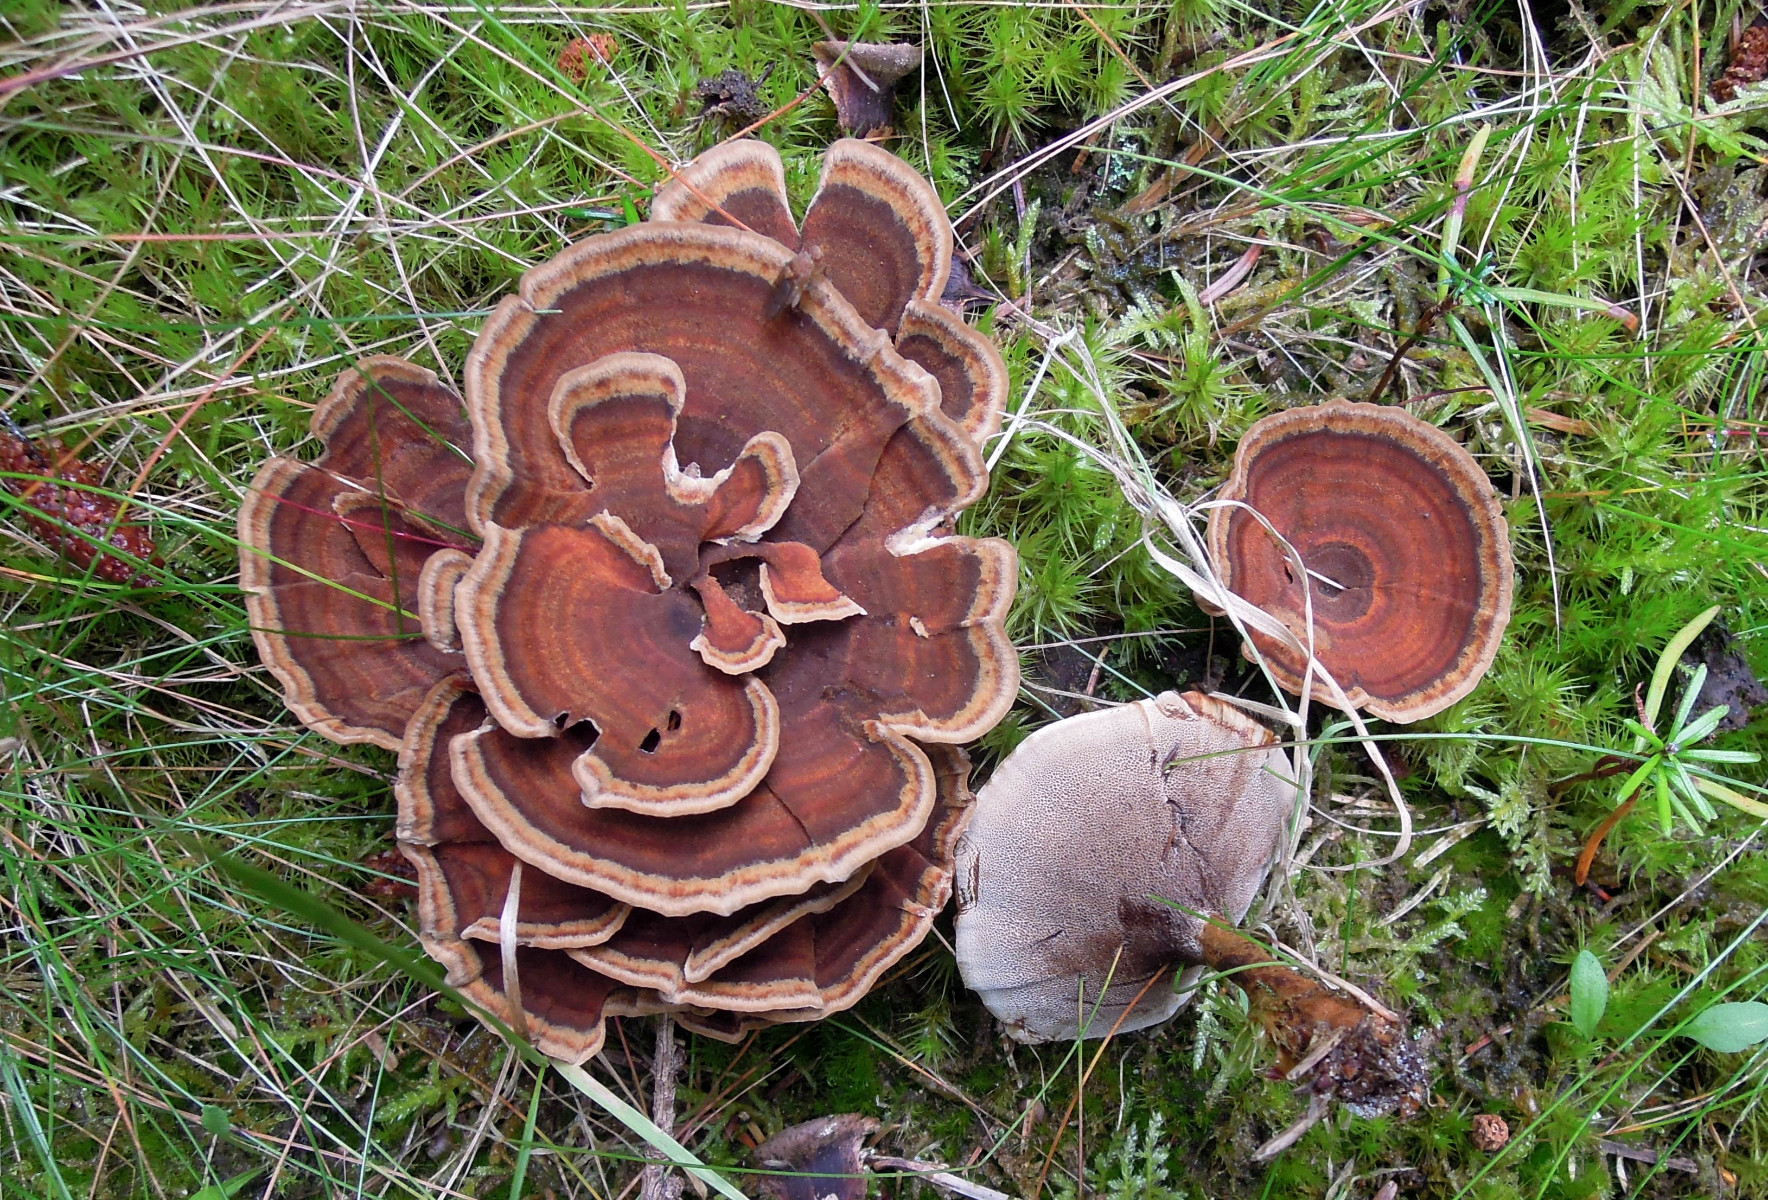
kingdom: Fungi
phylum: Basidiomycota
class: Agaricomycetes
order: Hymenochaetales
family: Hymenochaetaceae
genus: Coltricia
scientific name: Coltricia perennis
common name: almindelig sandporesvamp
